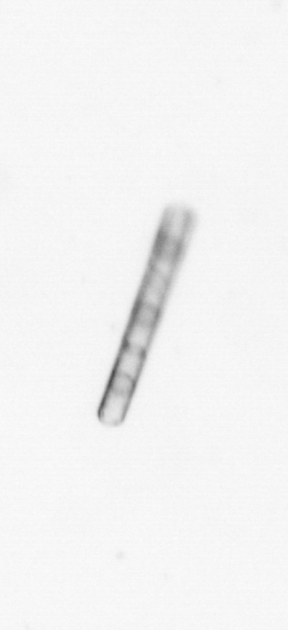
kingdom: Chromista
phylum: Ochrophyta
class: Bacillariophyceae
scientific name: Bacillariophyceae
